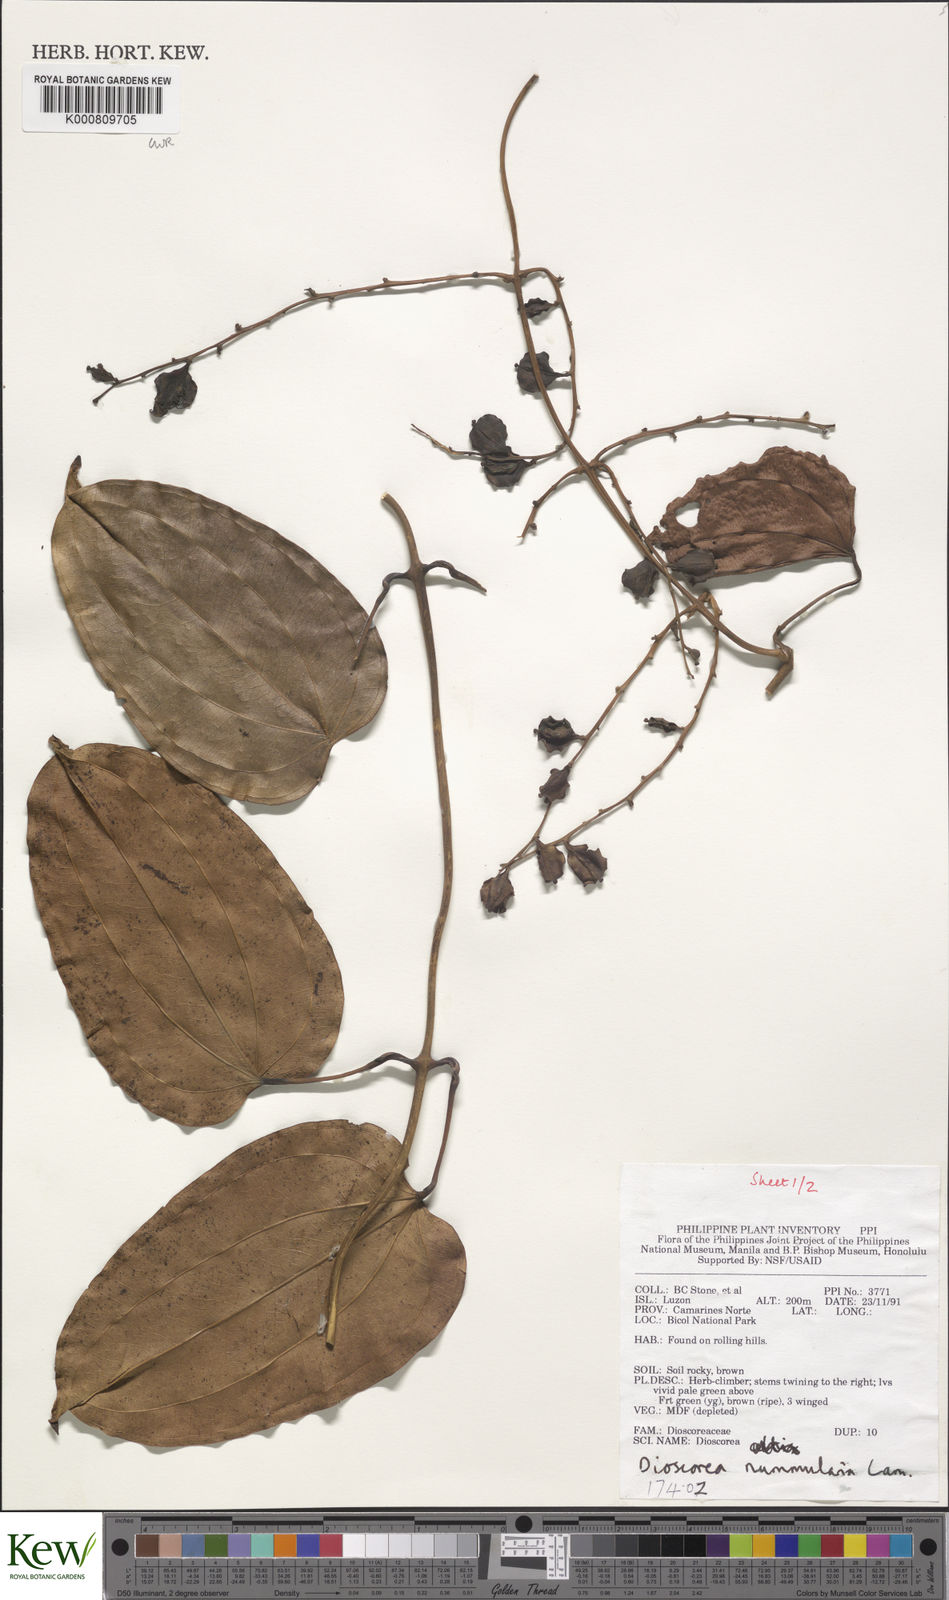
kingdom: Plantae
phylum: Tracheophyta
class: Liliopsida
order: Dioscoreales
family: Dioscoreaceae
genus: Dioscorea
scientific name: Dioscorea nummularia
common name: Pacific yam
